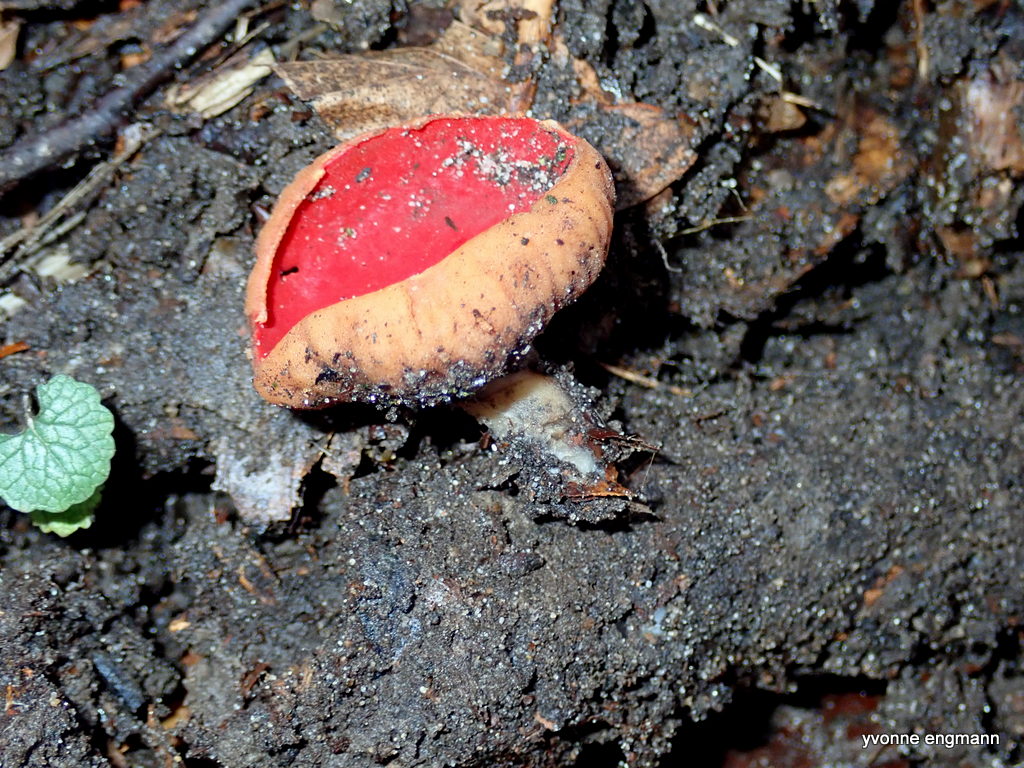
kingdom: Fungi
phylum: Ascomycota
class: Pezizomycetes
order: Pezizales
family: Sarcoscyphaceae
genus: Sarcoscypha
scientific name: Sarcoscypha austriaca
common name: krølhåret pragtbæger
